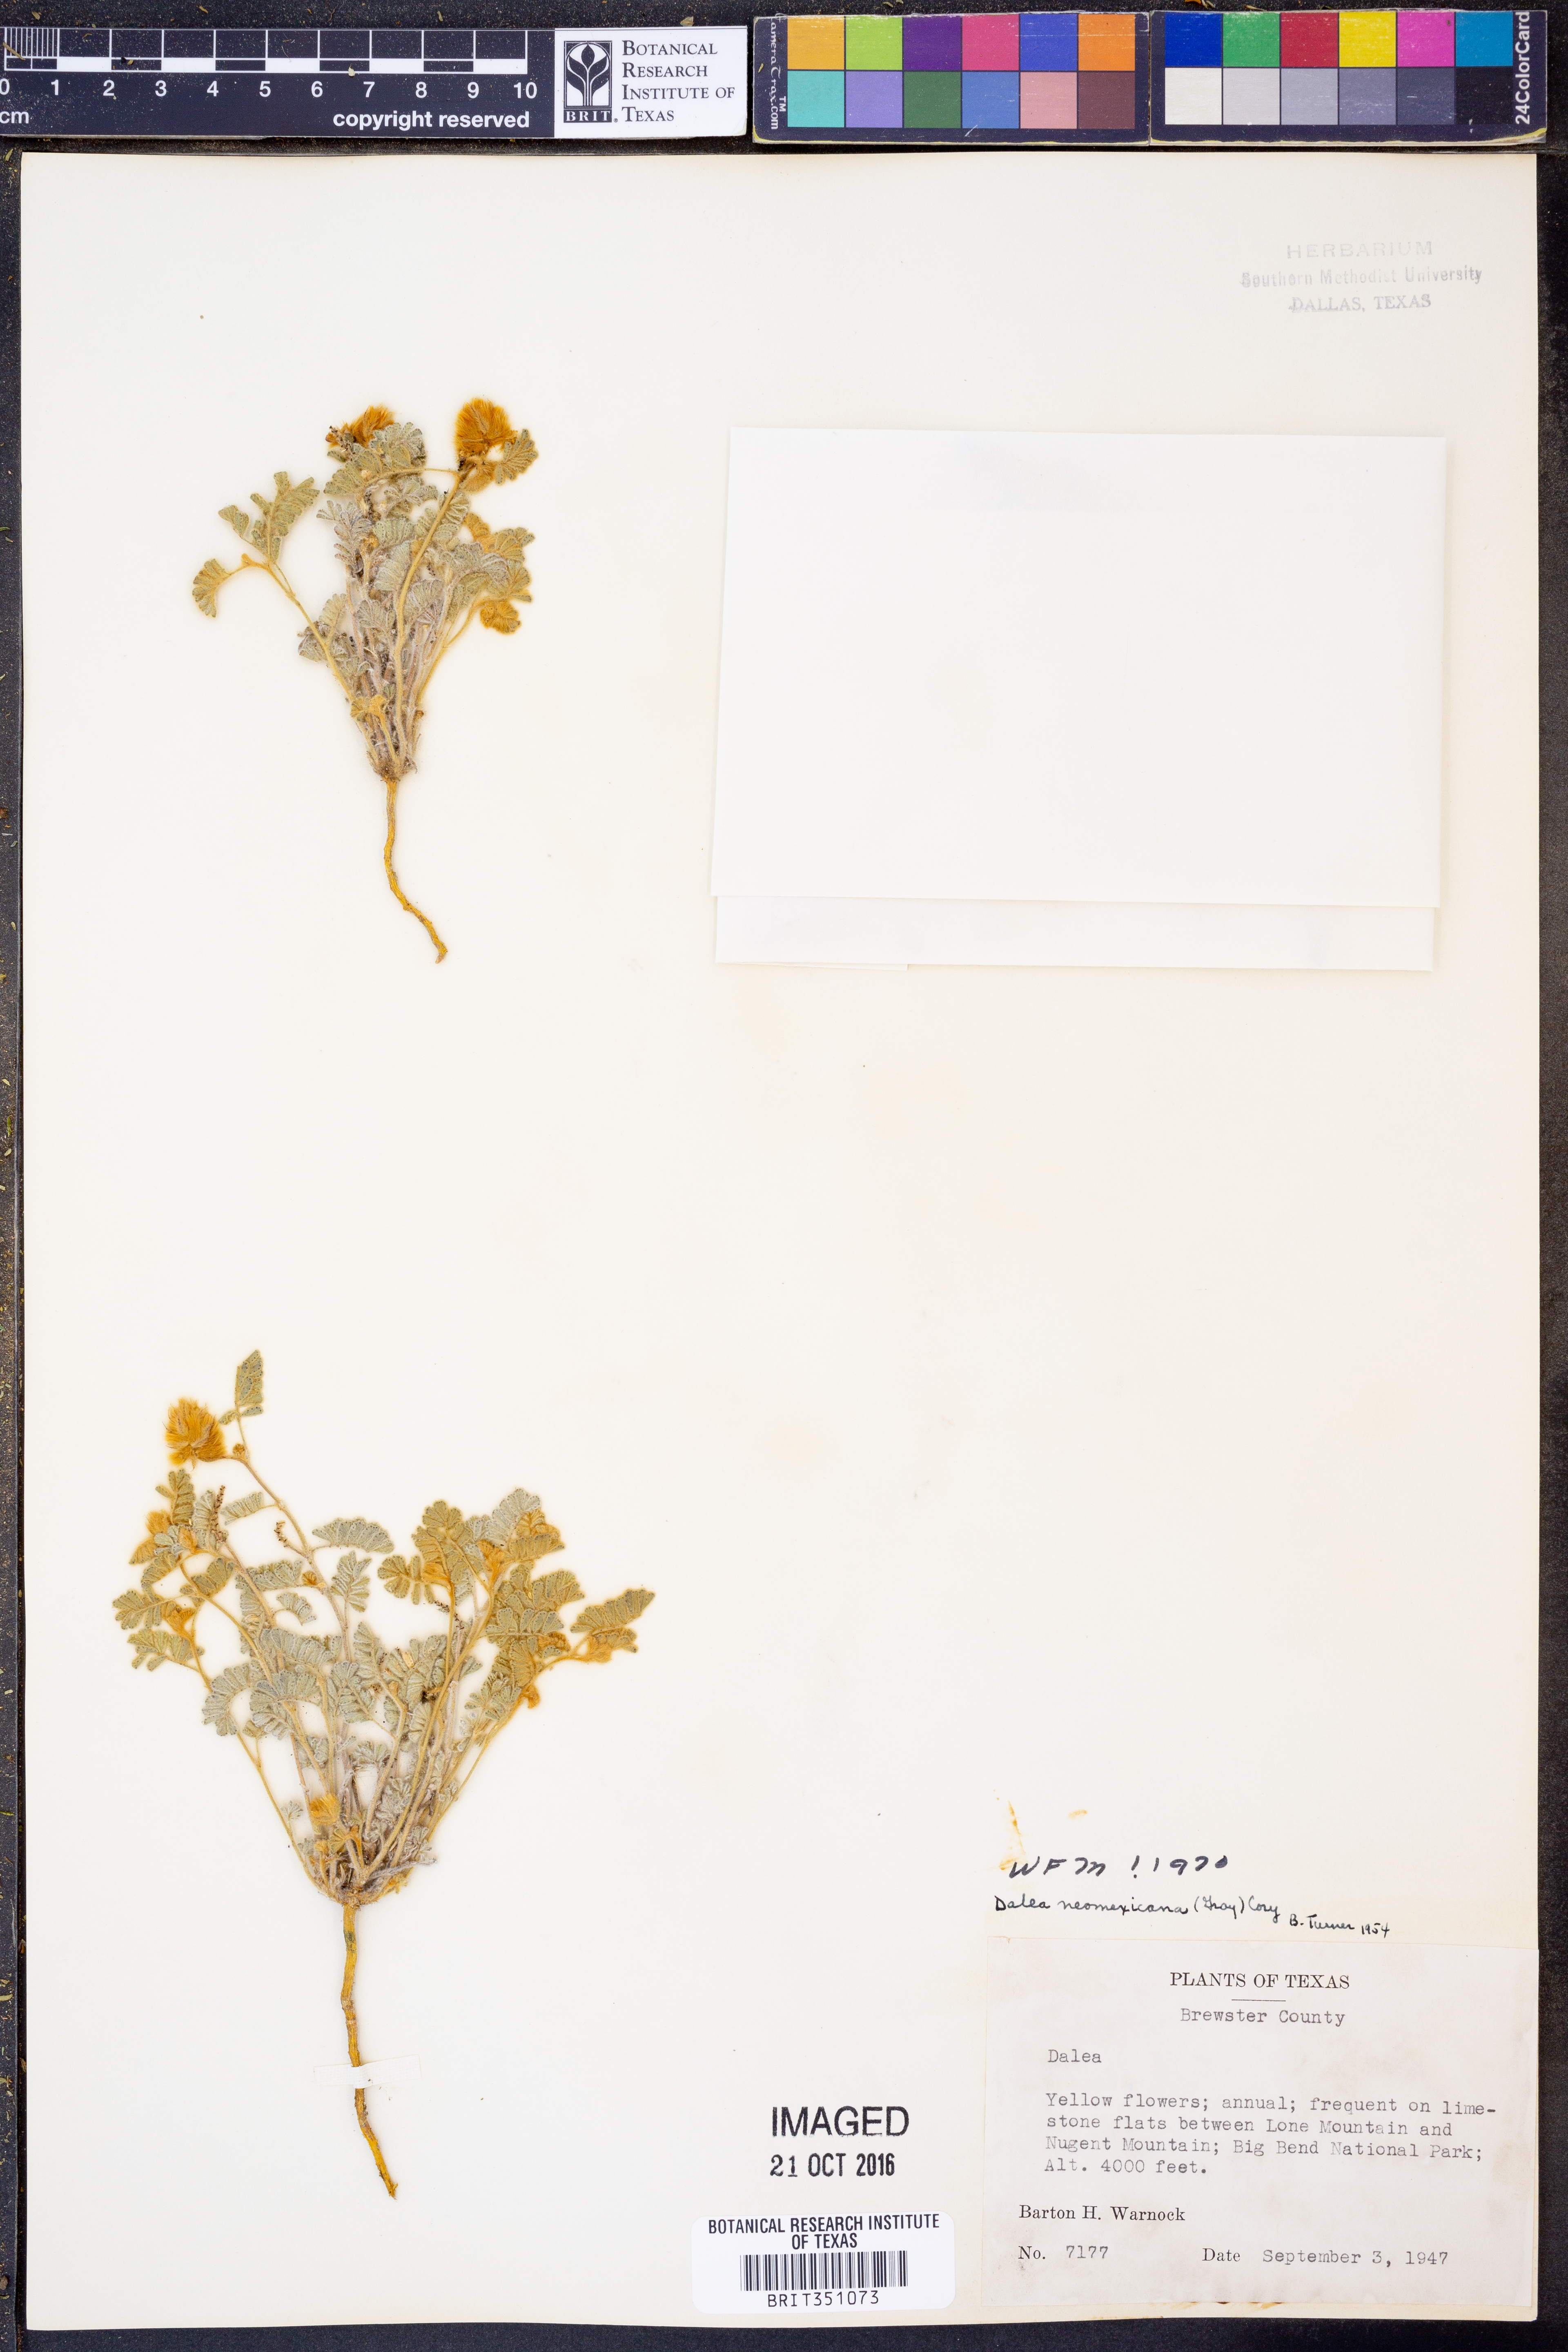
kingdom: Plantae
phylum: Tracheophyta
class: Magnoliopsida
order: Fabales
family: Fabaceae
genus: Dalea
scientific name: Dalea neomexicana
